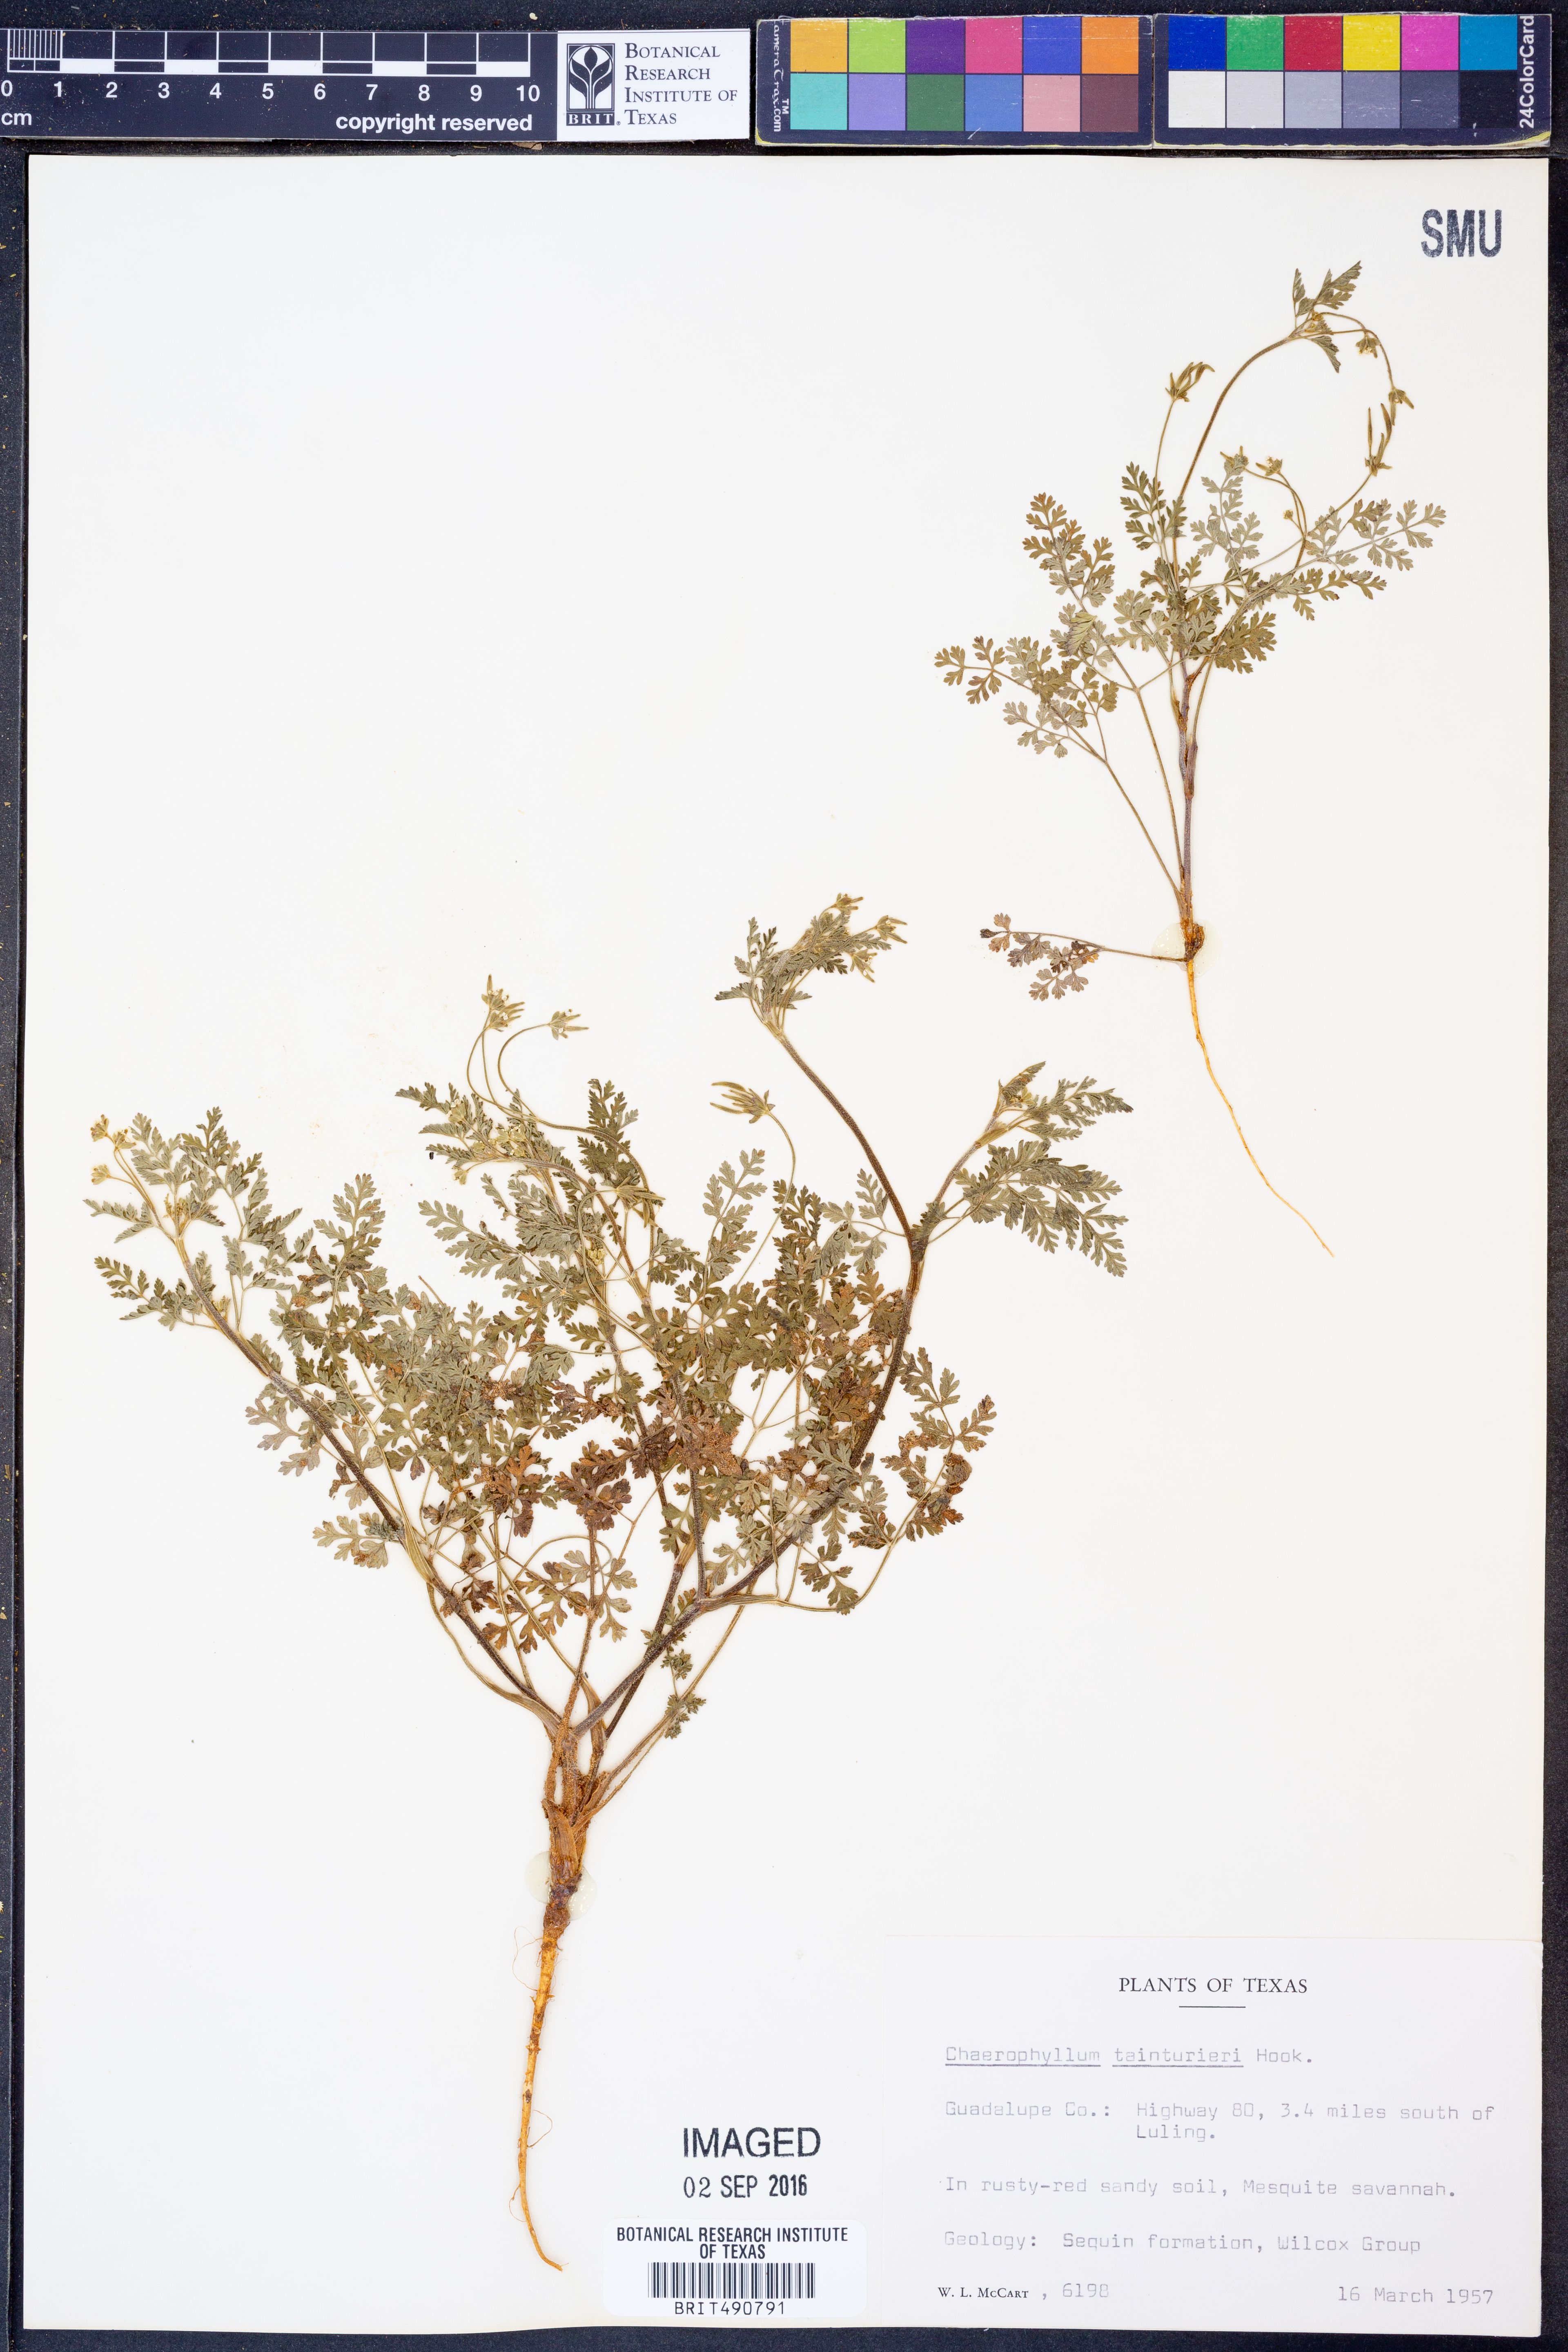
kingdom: Plantae
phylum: Tracheophyta
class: Magnoliopsida
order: Apiales
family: Apiaceae
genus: Chaerophyllum
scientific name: Chaerophyllum tainturieri
